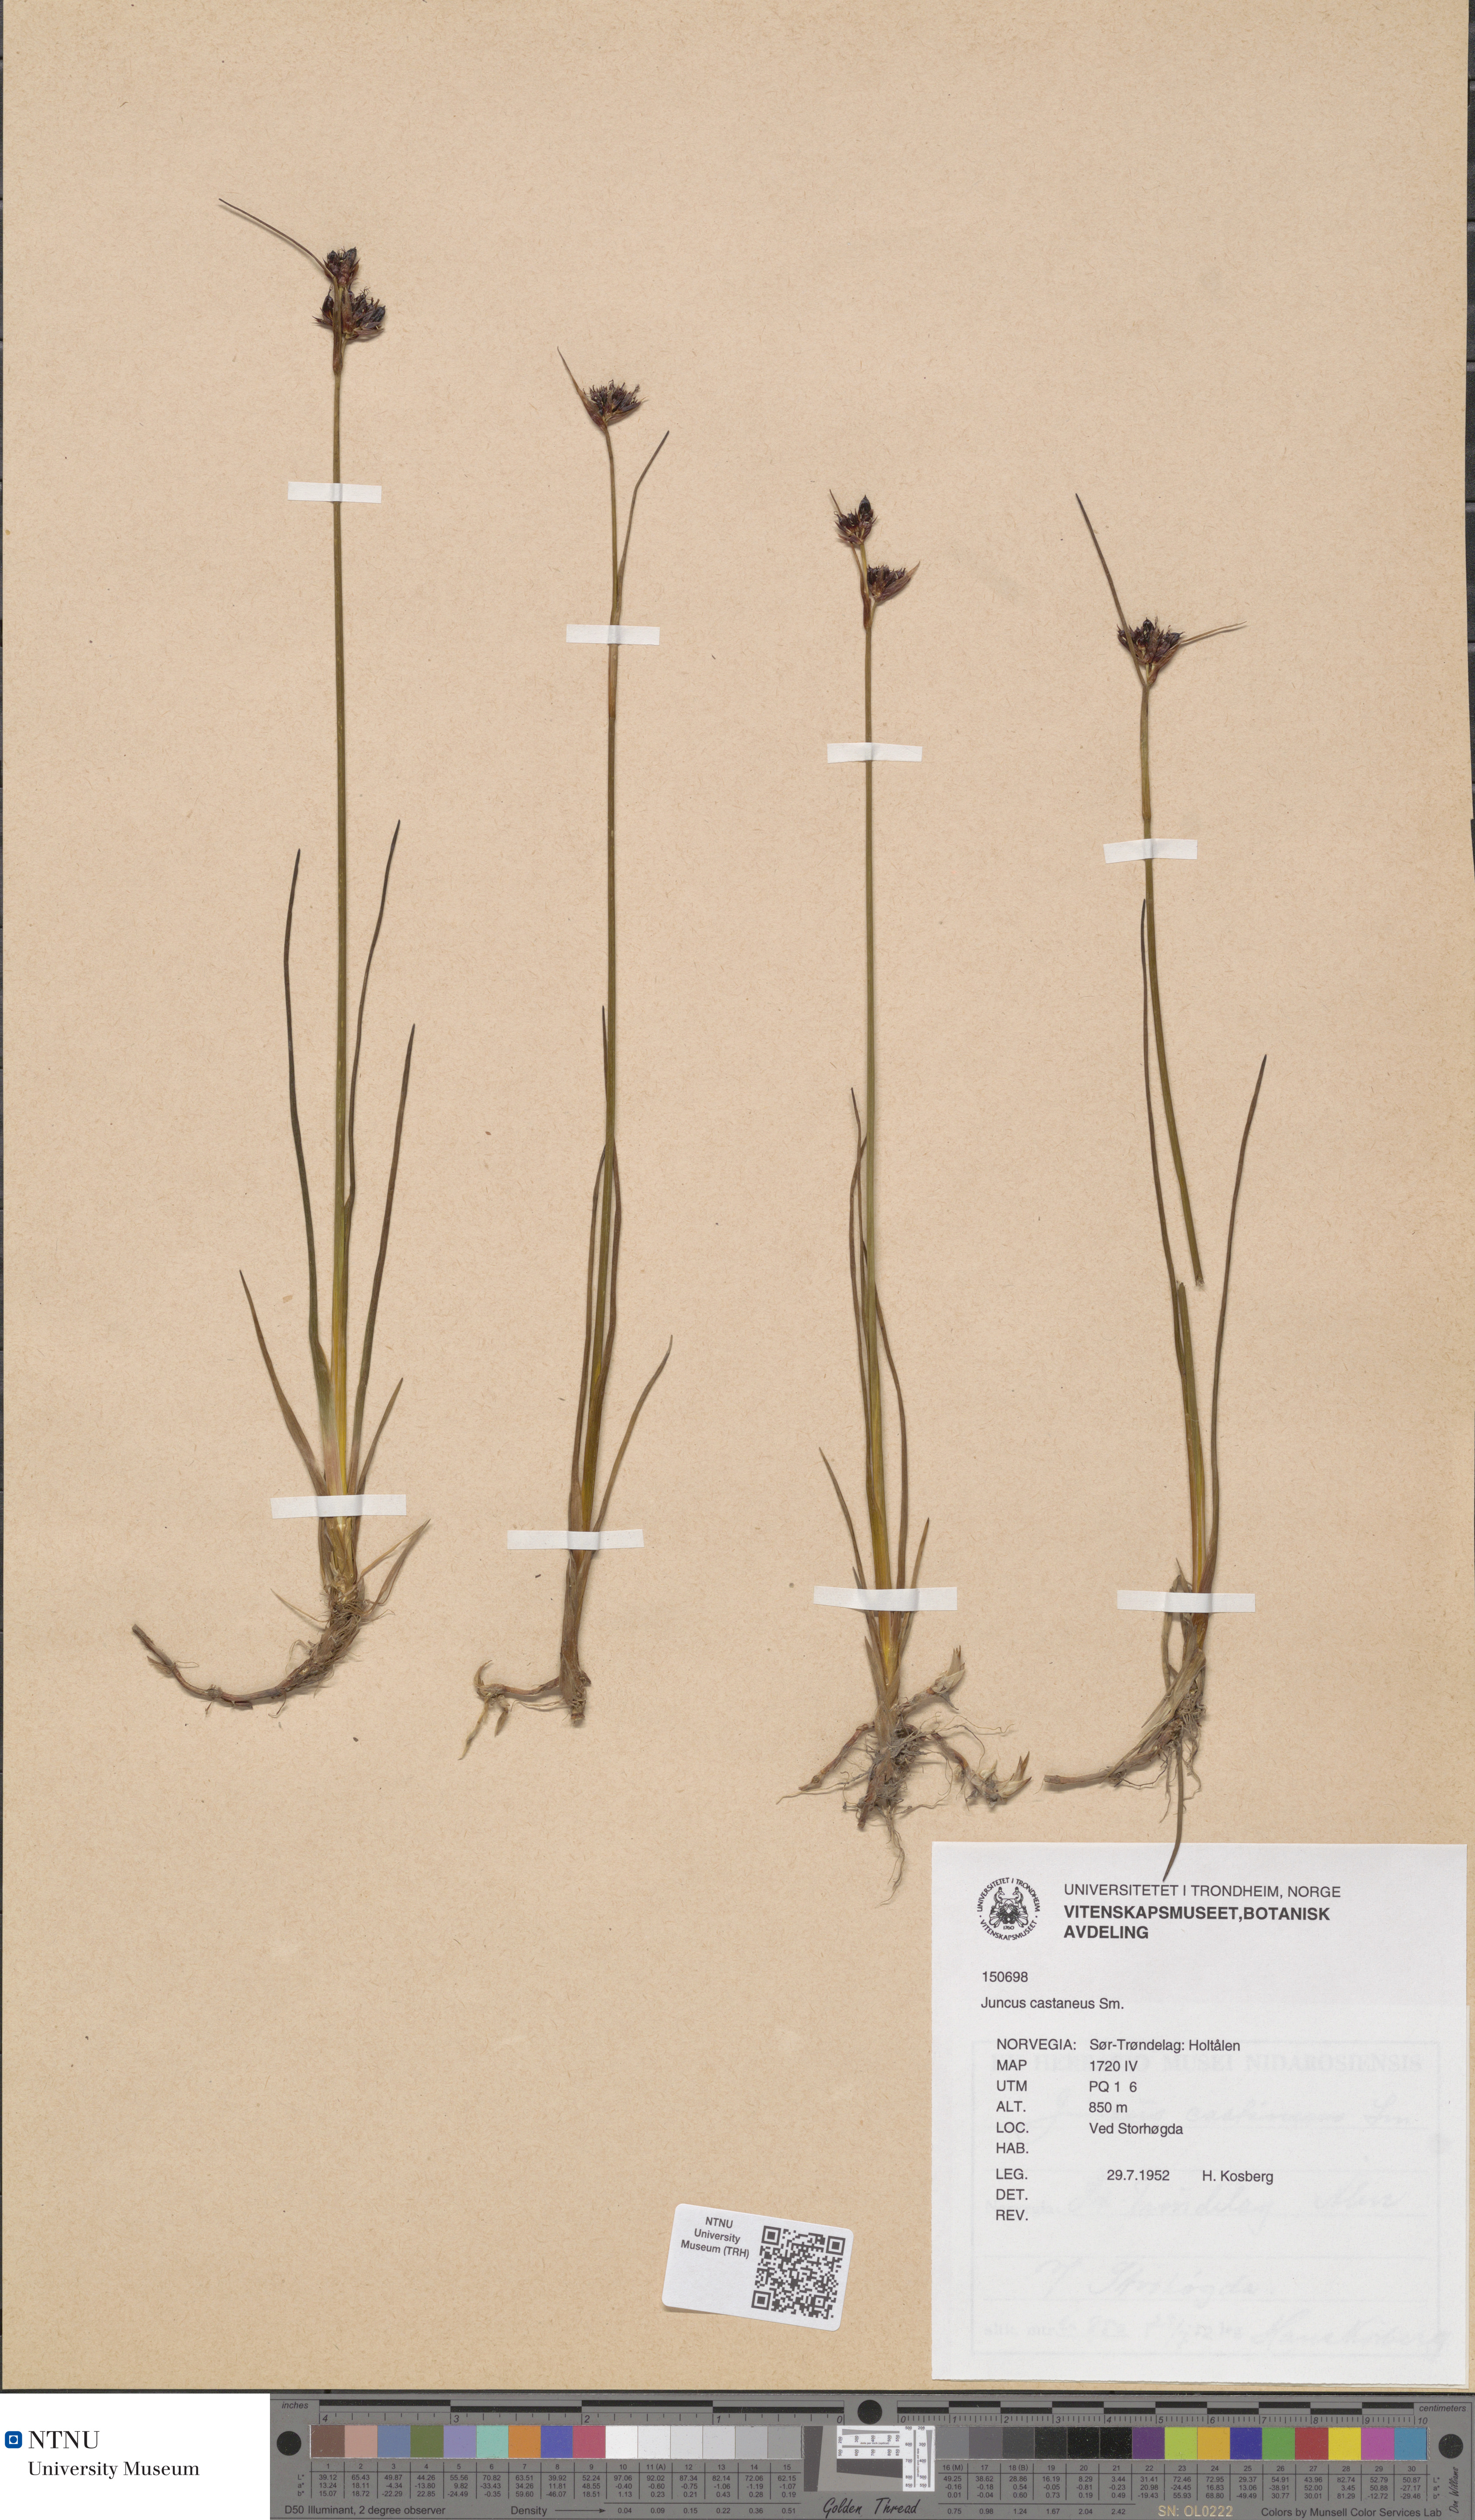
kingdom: Plantae
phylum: Tracheophyta
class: Liliopsida
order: Poales
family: Juncaceae
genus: Juncus
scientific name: Juncus castaneus
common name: Chestnut rush
